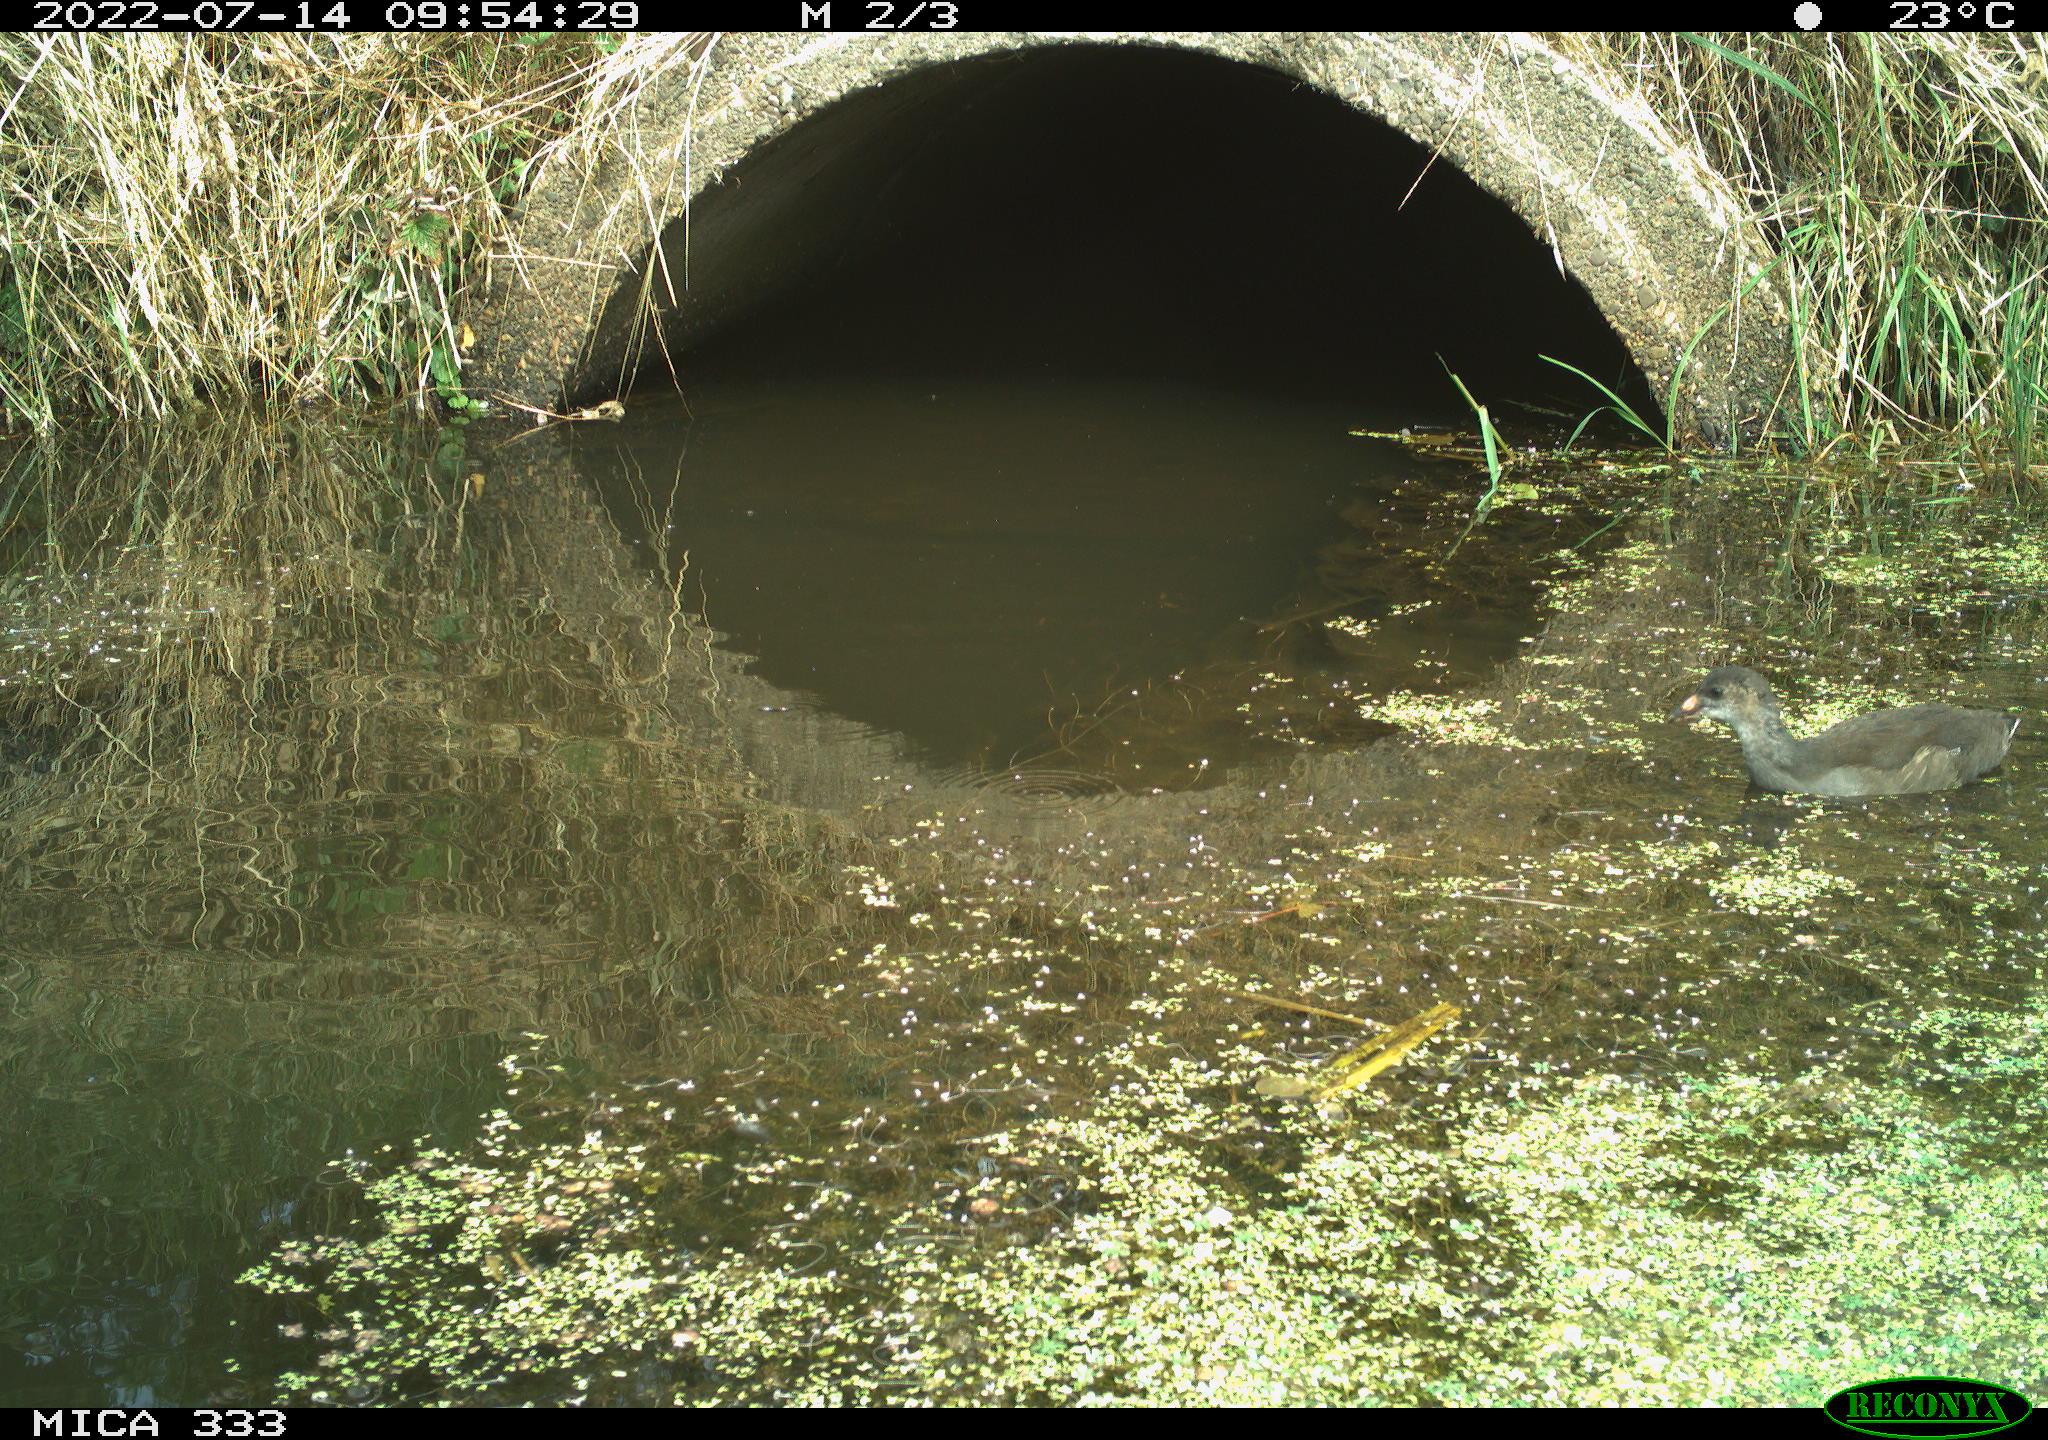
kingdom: Animalia
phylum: Chordata
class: Aves
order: Gruiformes
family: Rallidae
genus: Gallinula
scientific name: Gallinula chloropus
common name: Common moorhen
